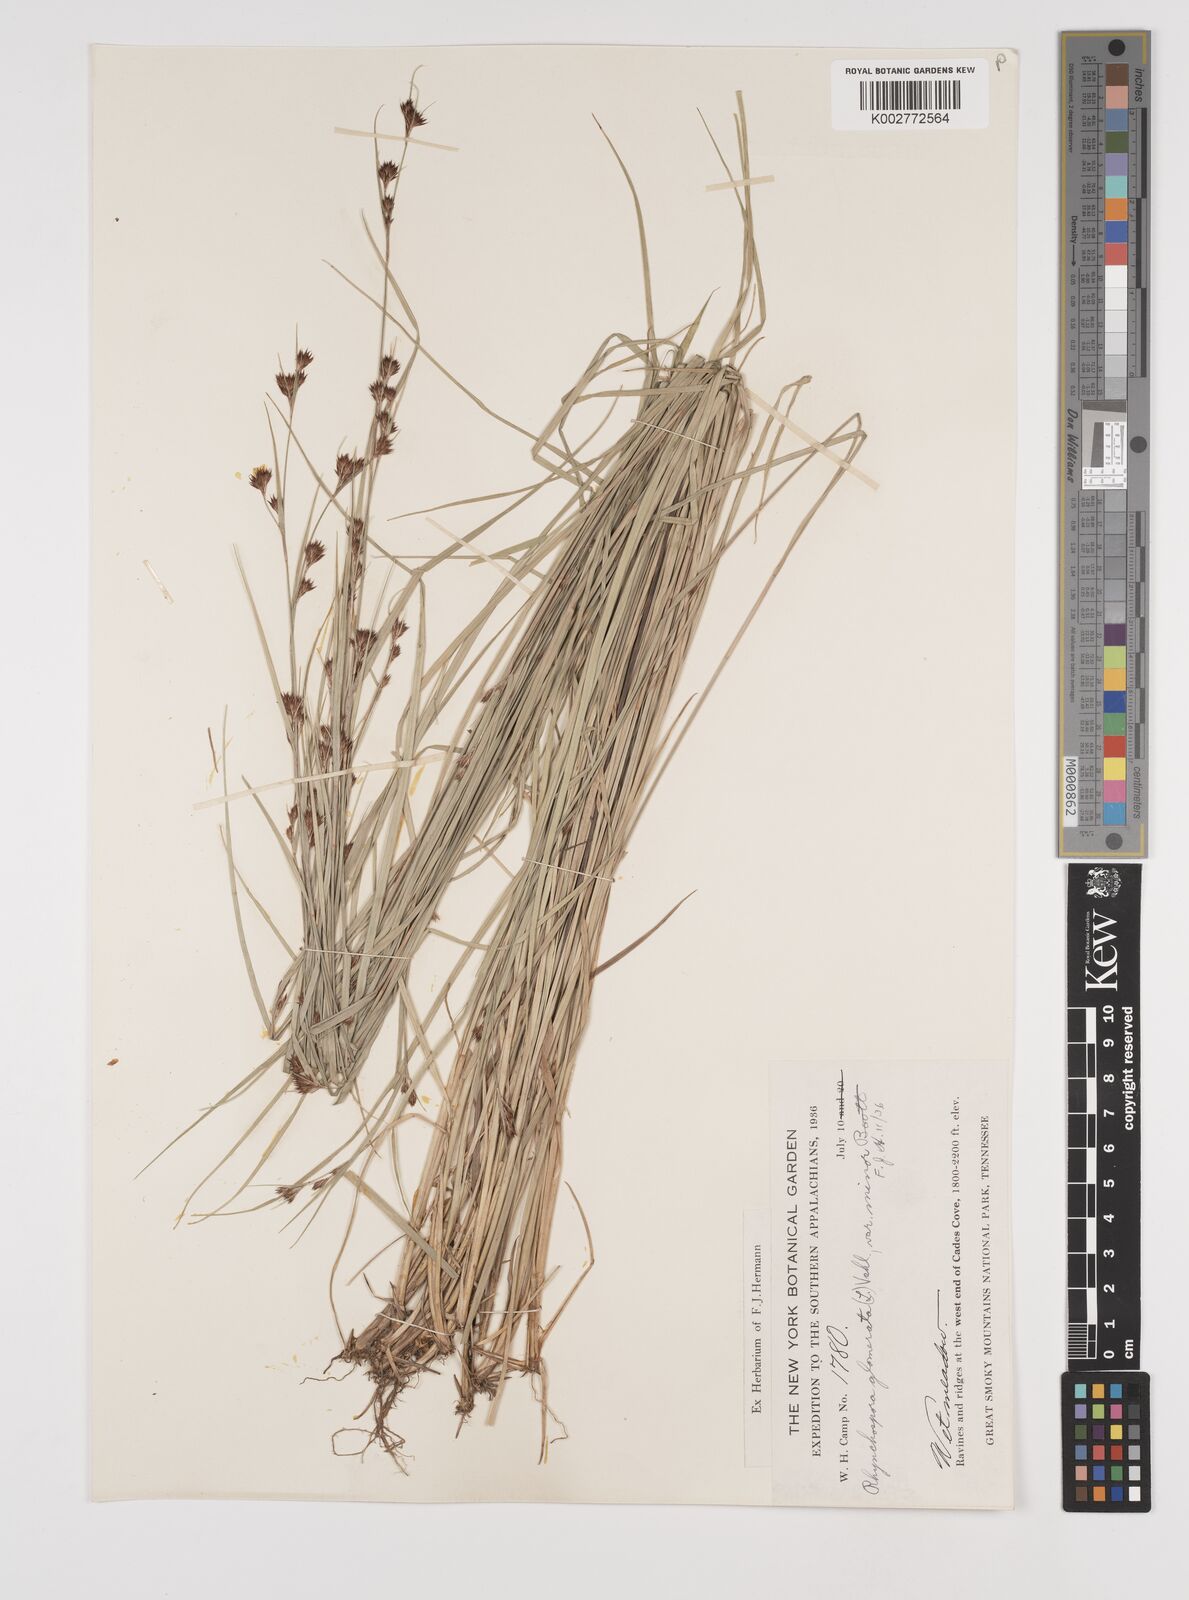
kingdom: Plantae
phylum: Tracheophyta
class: Liliopsida
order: Poales
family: Cyperaceae
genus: Rhynchospora
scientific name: Rhynchospora glomerata
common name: Cluster beak sedge
